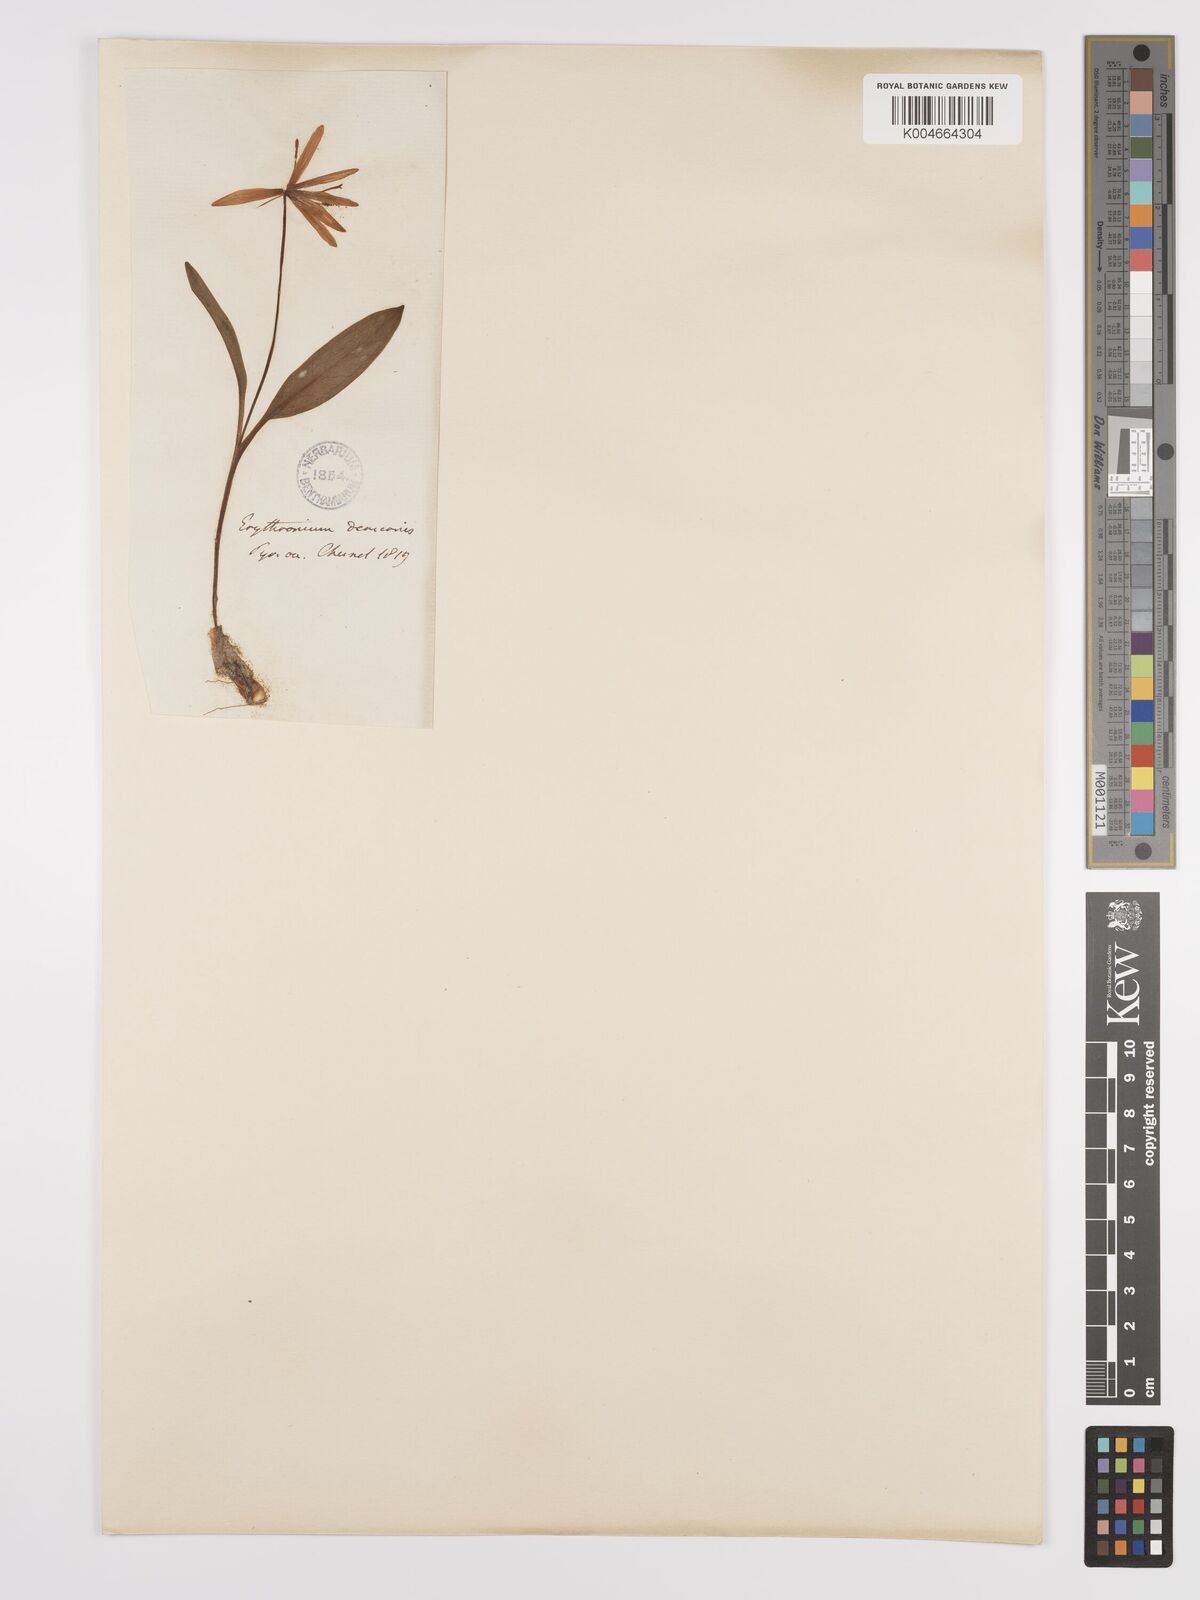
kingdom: Plantae
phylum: Tracheophyta
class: Liliopsida
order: Liliales
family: Liliaceae
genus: Erythronium
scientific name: Erythronium dens-canis
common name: Dog's-tooth-violet
